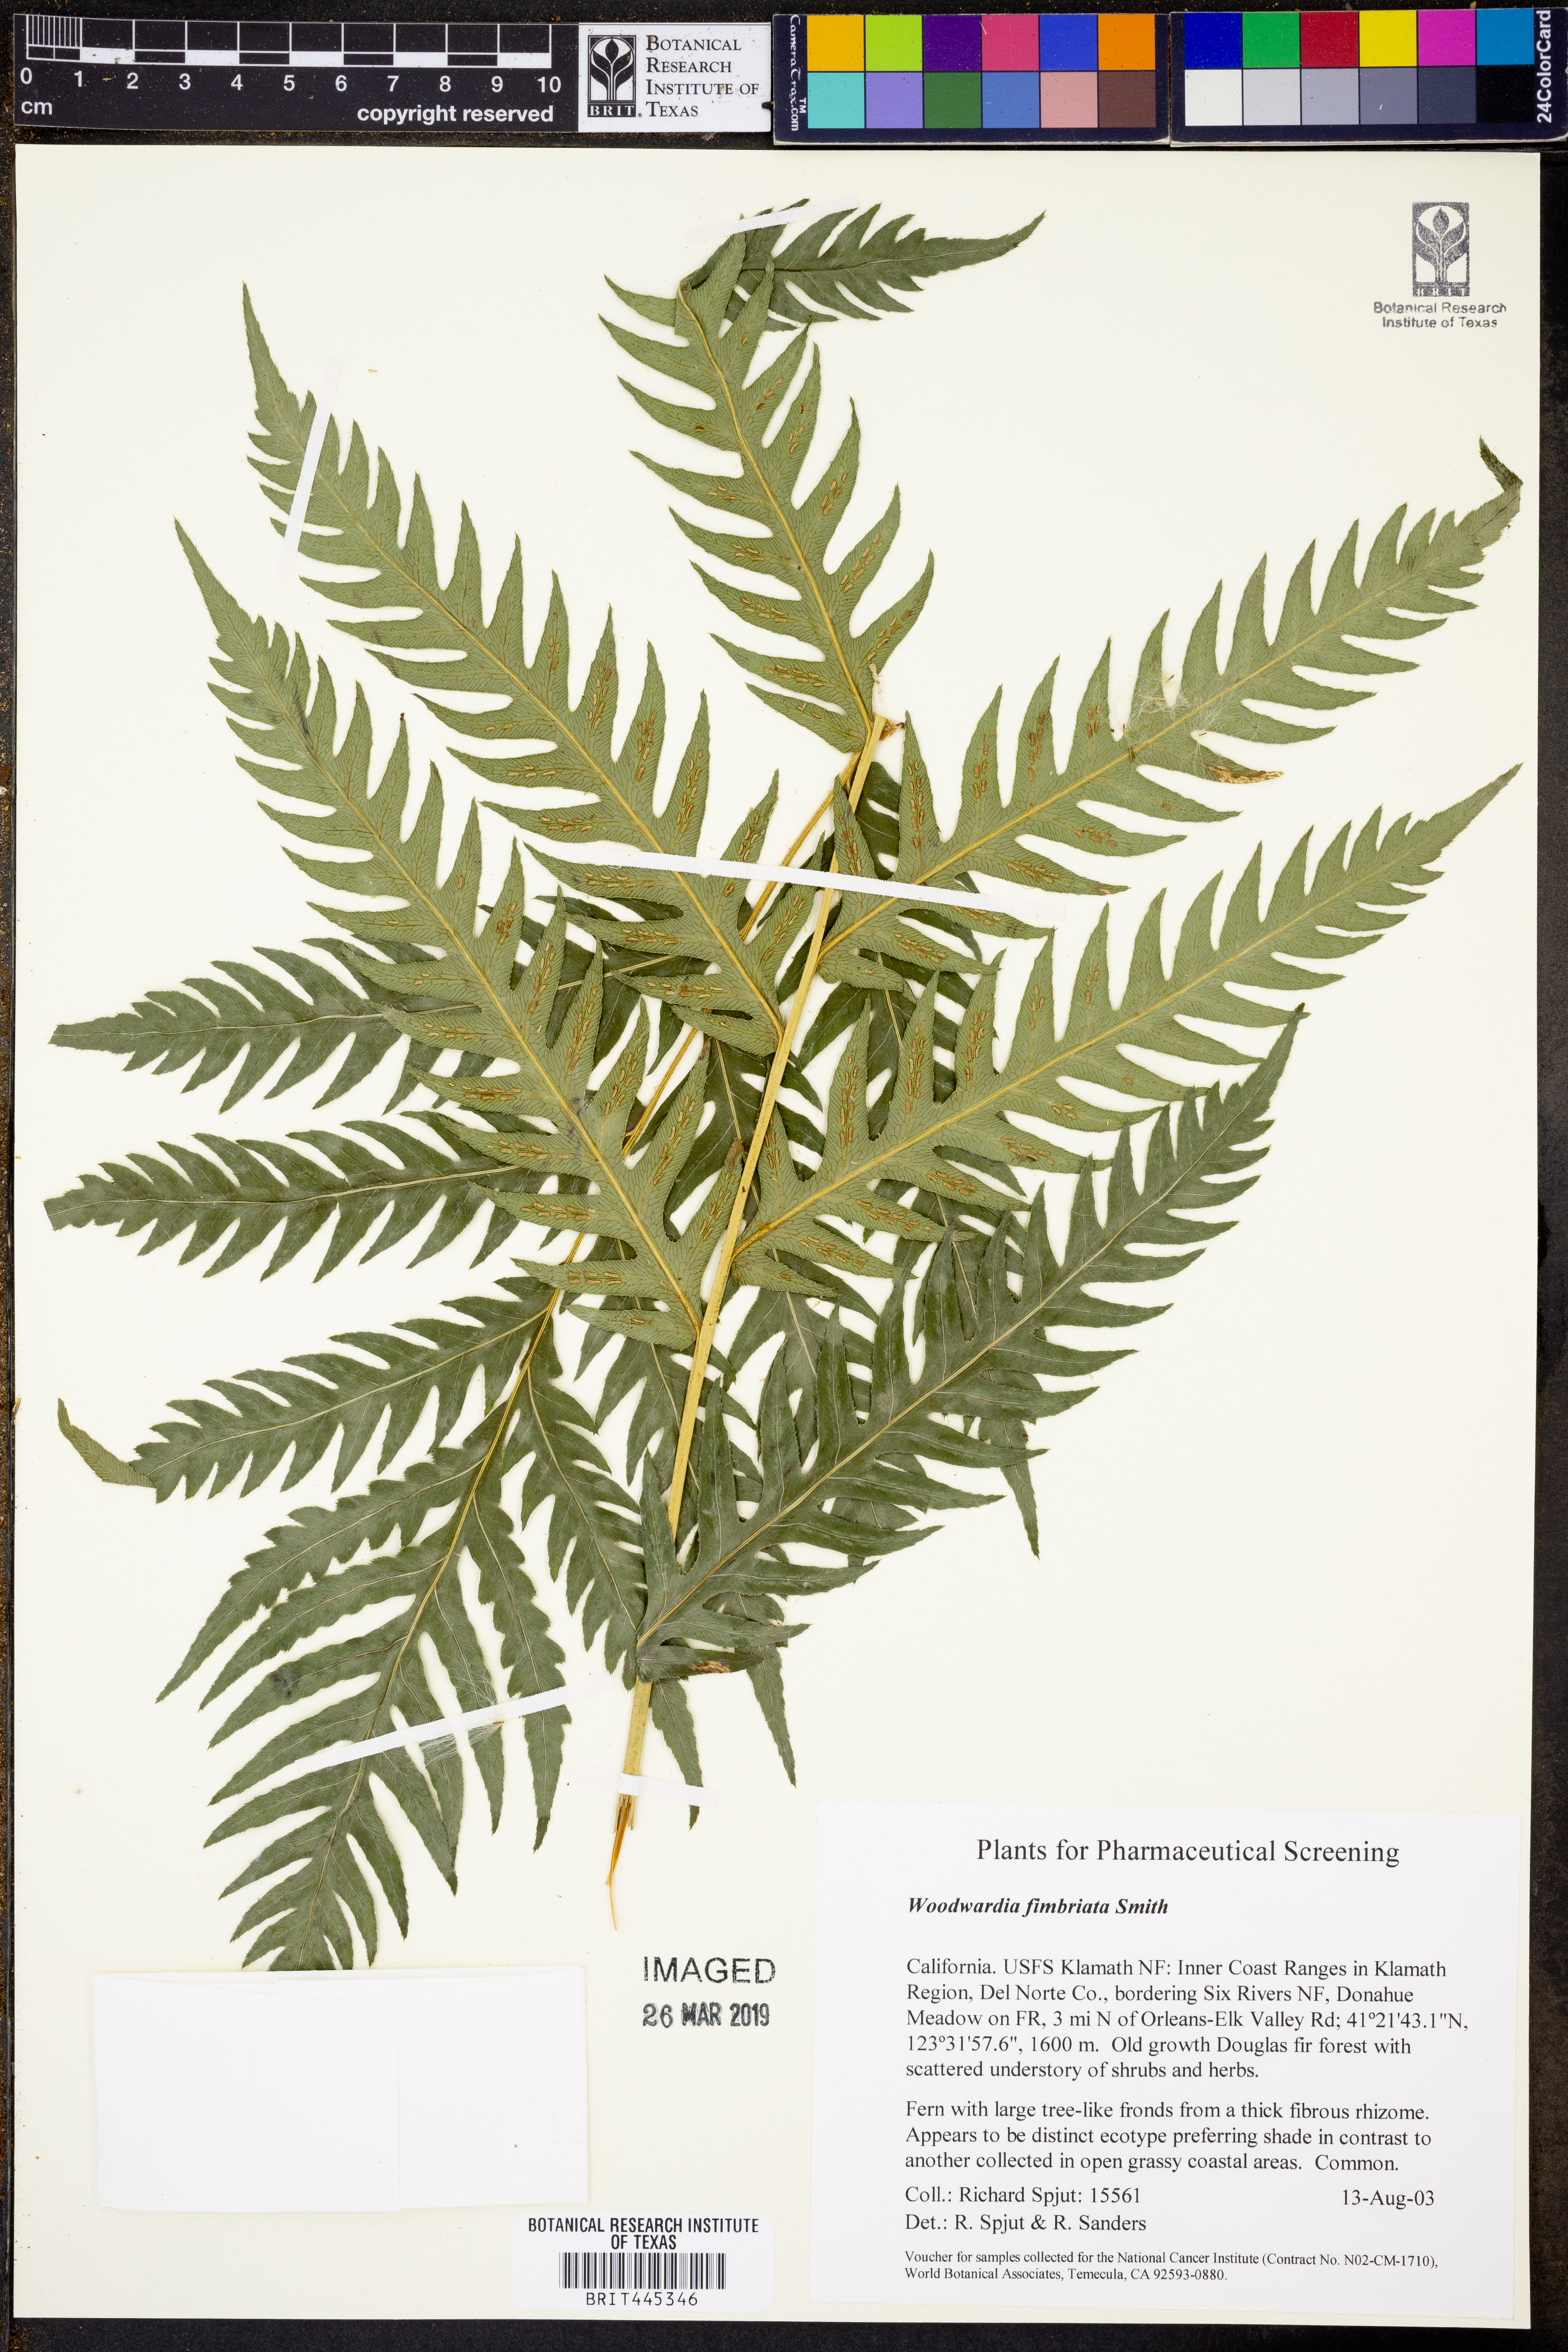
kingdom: Plantae
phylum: Tracheophyta
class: Polypodiopsida
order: Polypodiales
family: Blechnaceae
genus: Woodwardia
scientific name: Woodwardia fimbriata
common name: Giant chain fern
